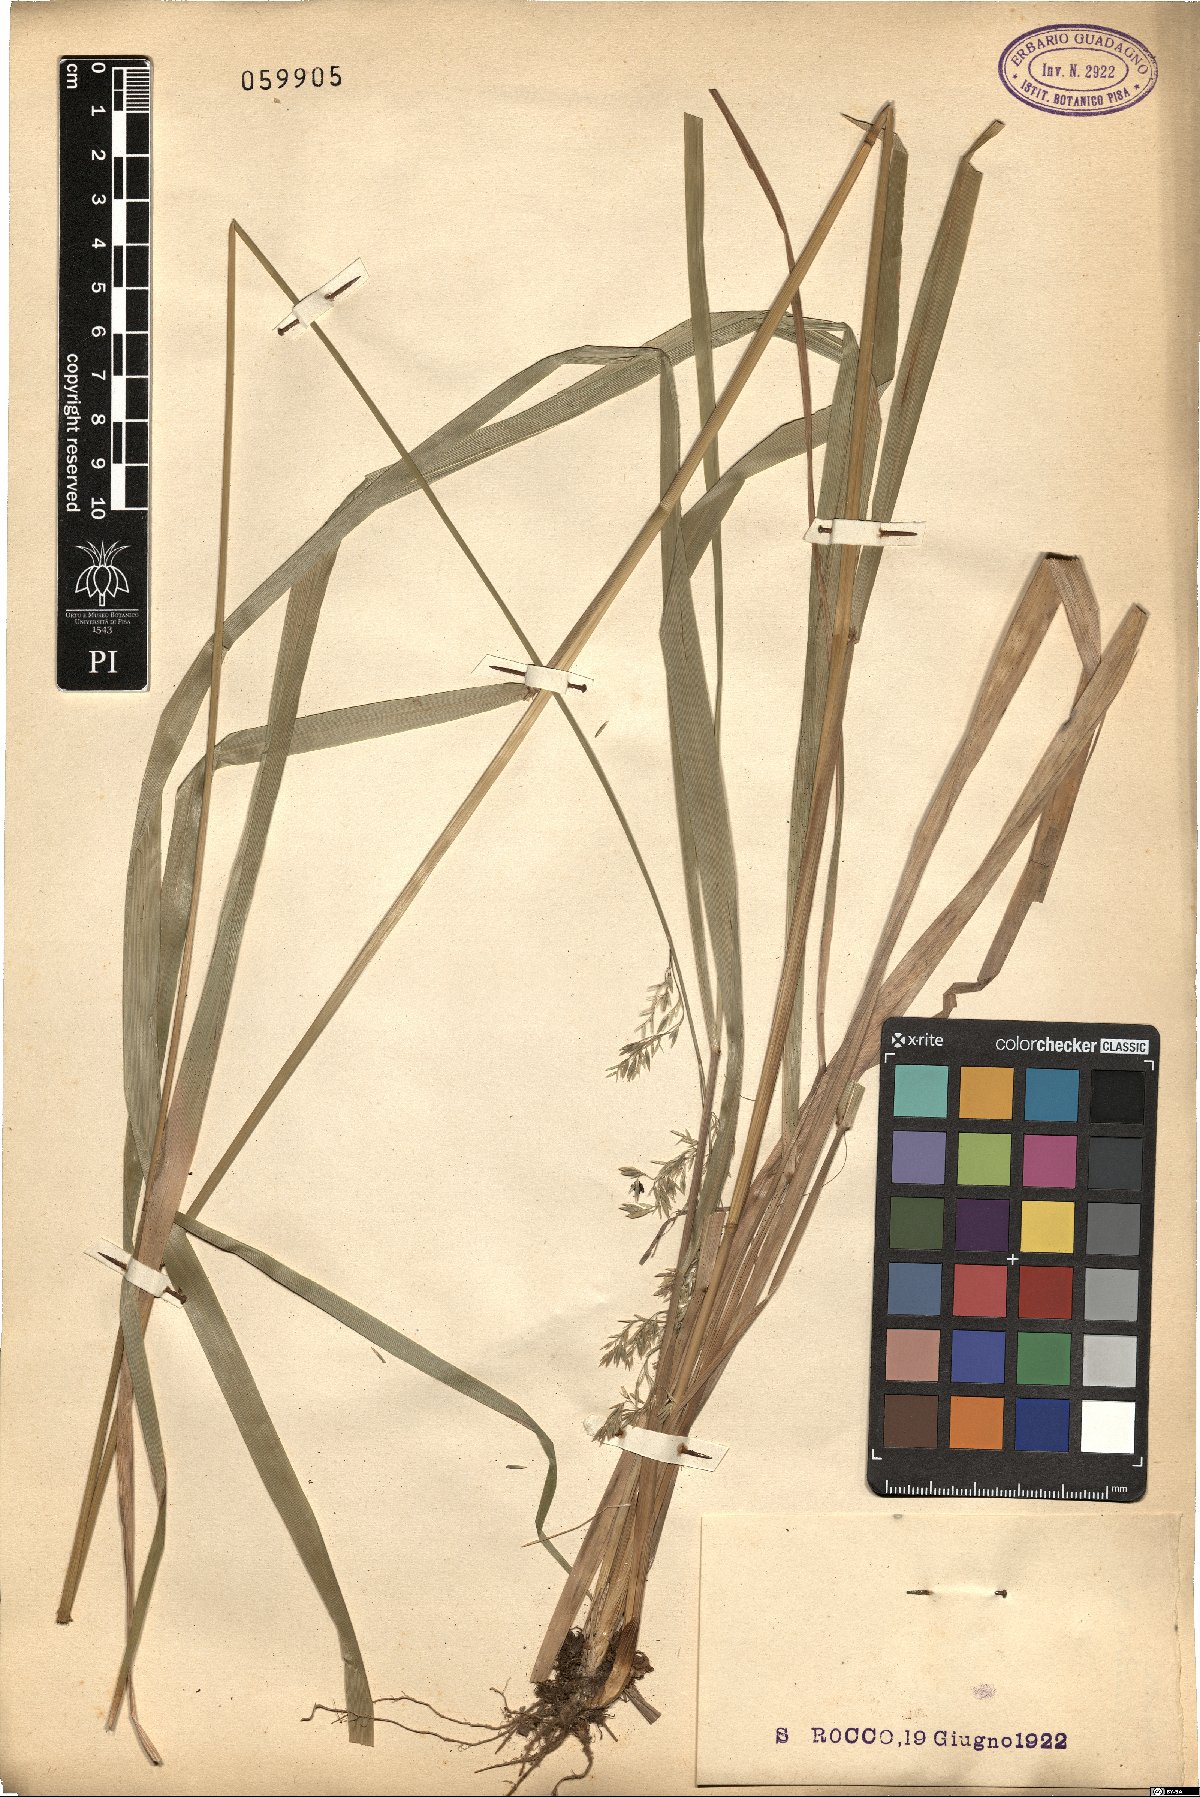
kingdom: Plantae
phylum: Tracheophyta
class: Liliopsida
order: Poales
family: Poaceae
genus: Festuca
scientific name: Festuca
